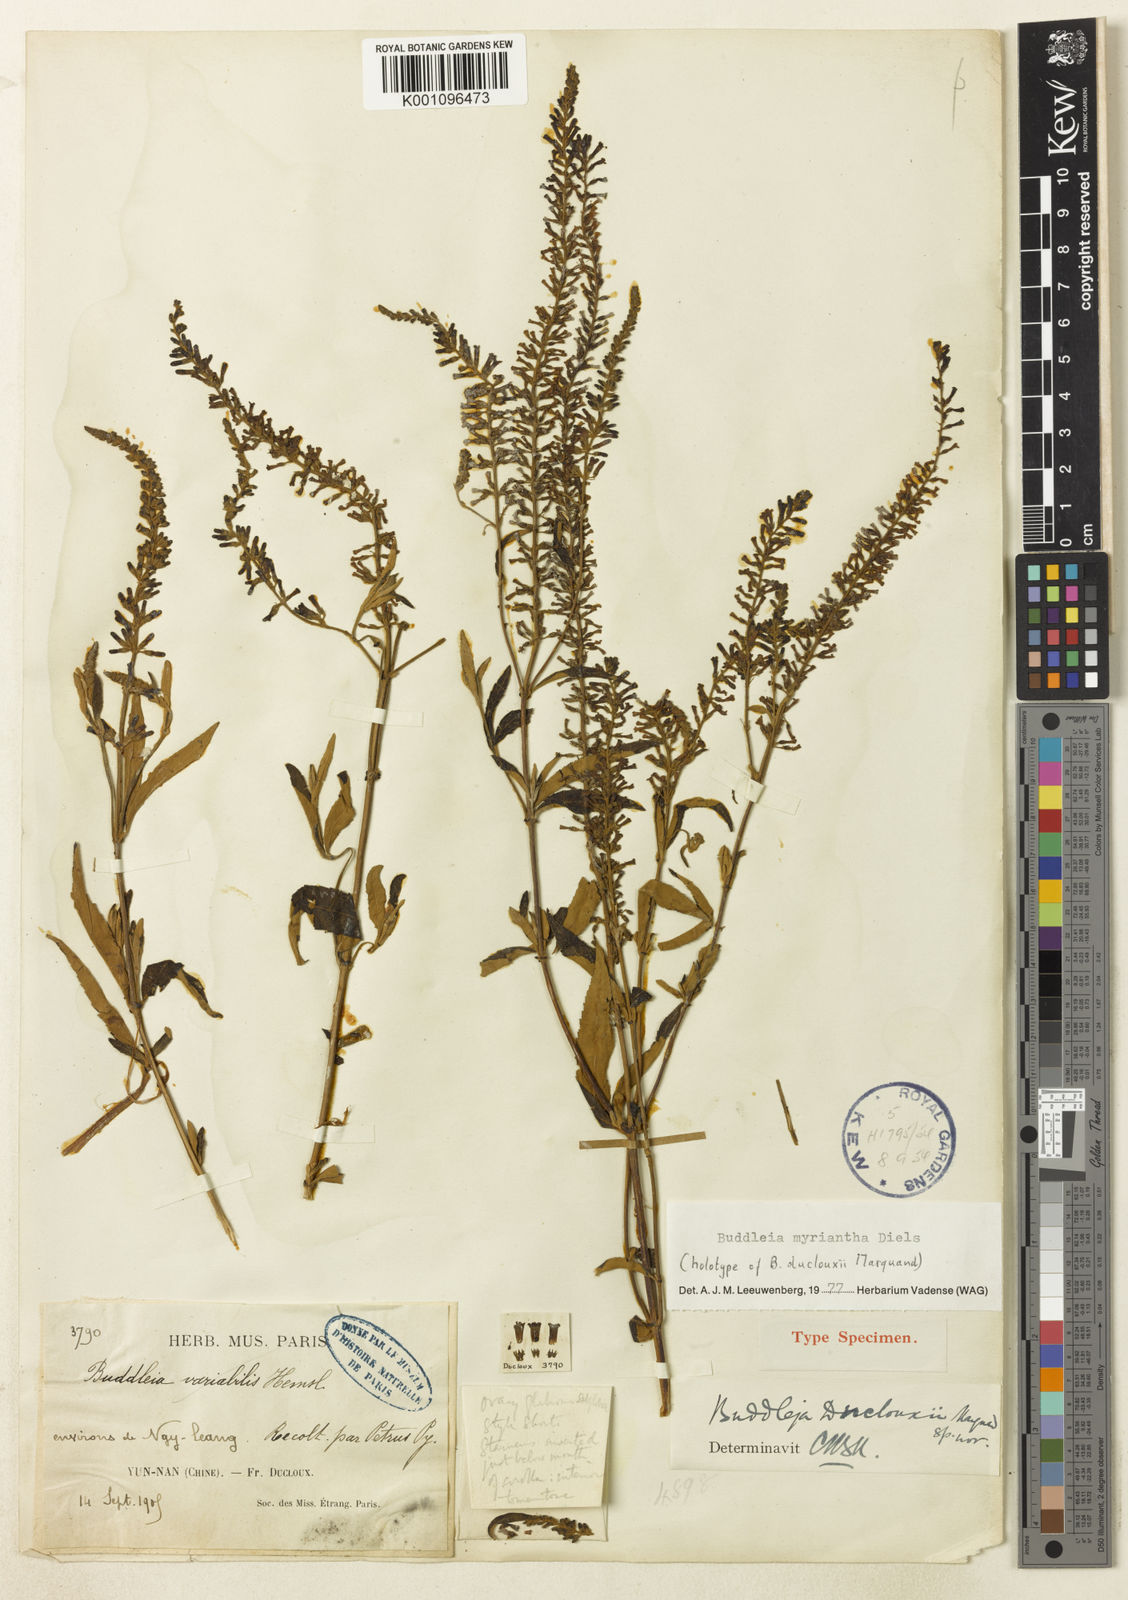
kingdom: Plantae
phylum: Tracheophyta
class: Magnoliopsida
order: Lamiales
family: Scrophulariaceae
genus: Buddleja
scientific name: Buddleja myriantha
